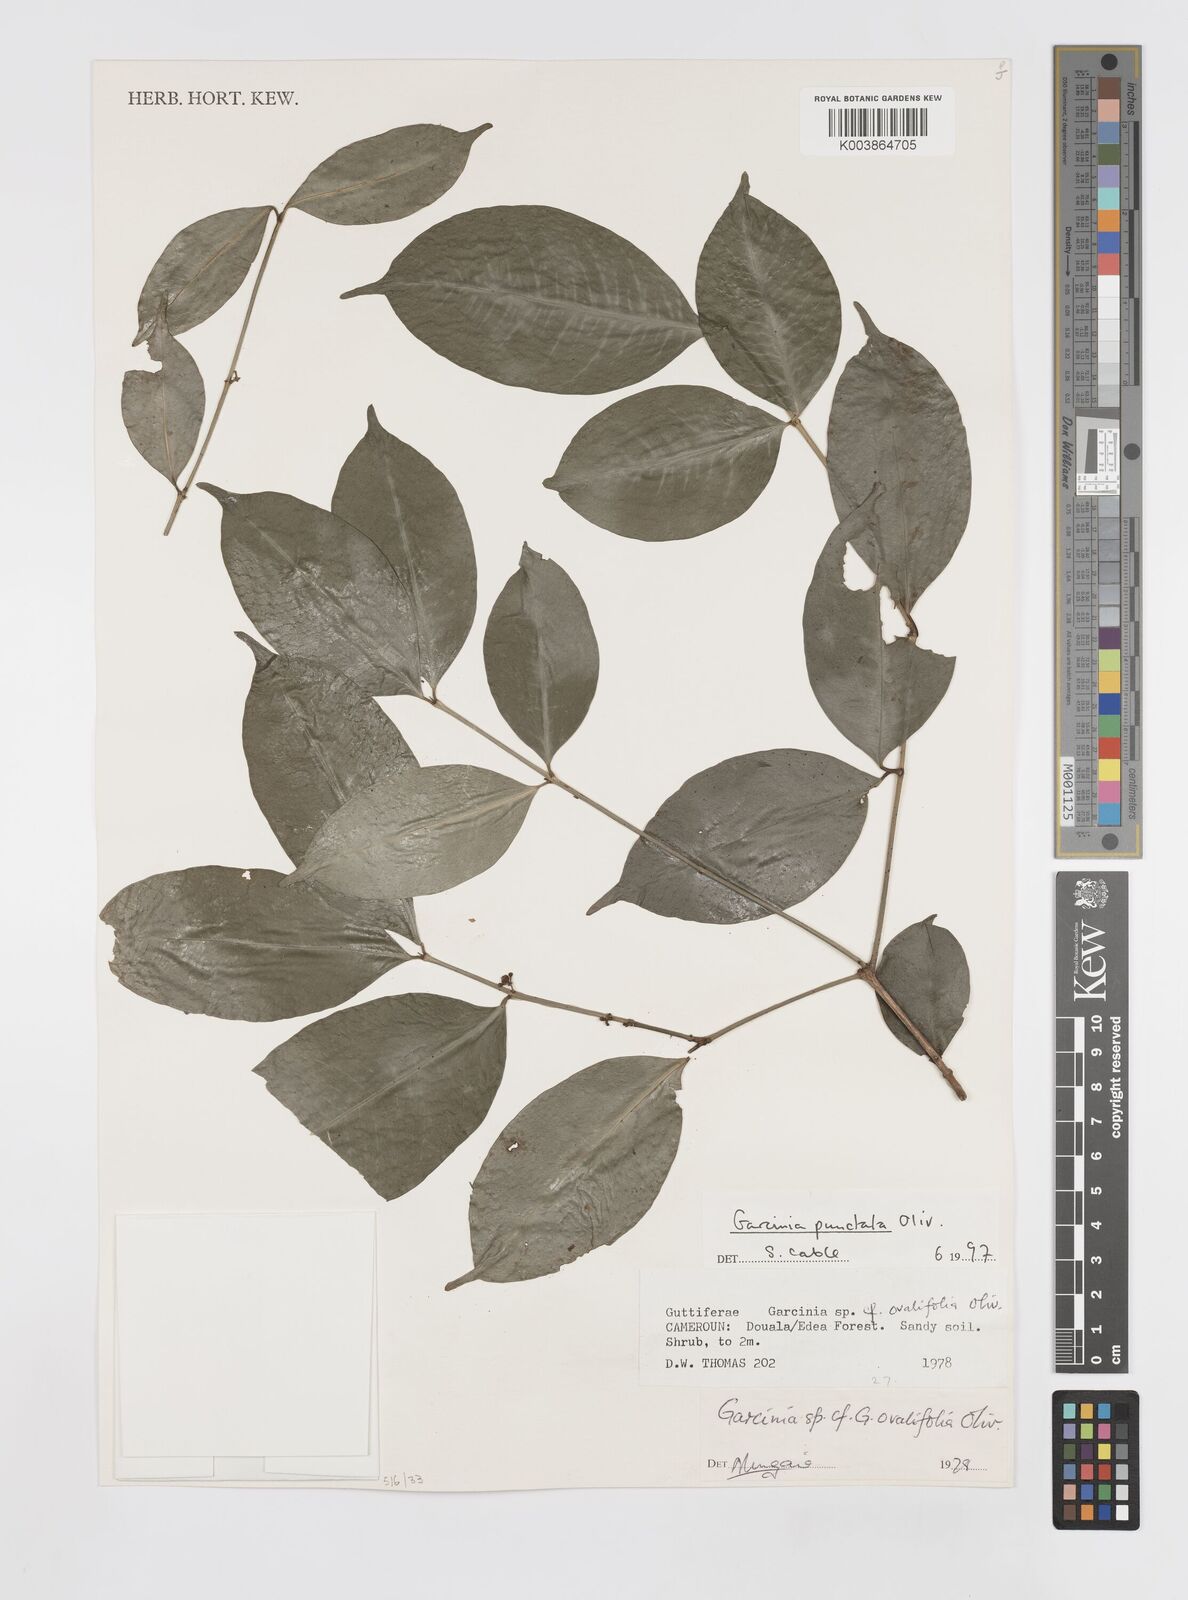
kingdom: Plantae
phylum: Tracheophyta
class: Magnoliopsida
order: Malpighiales
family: Clusiaceae
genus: Garcinia
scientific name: Garcinia punctata
